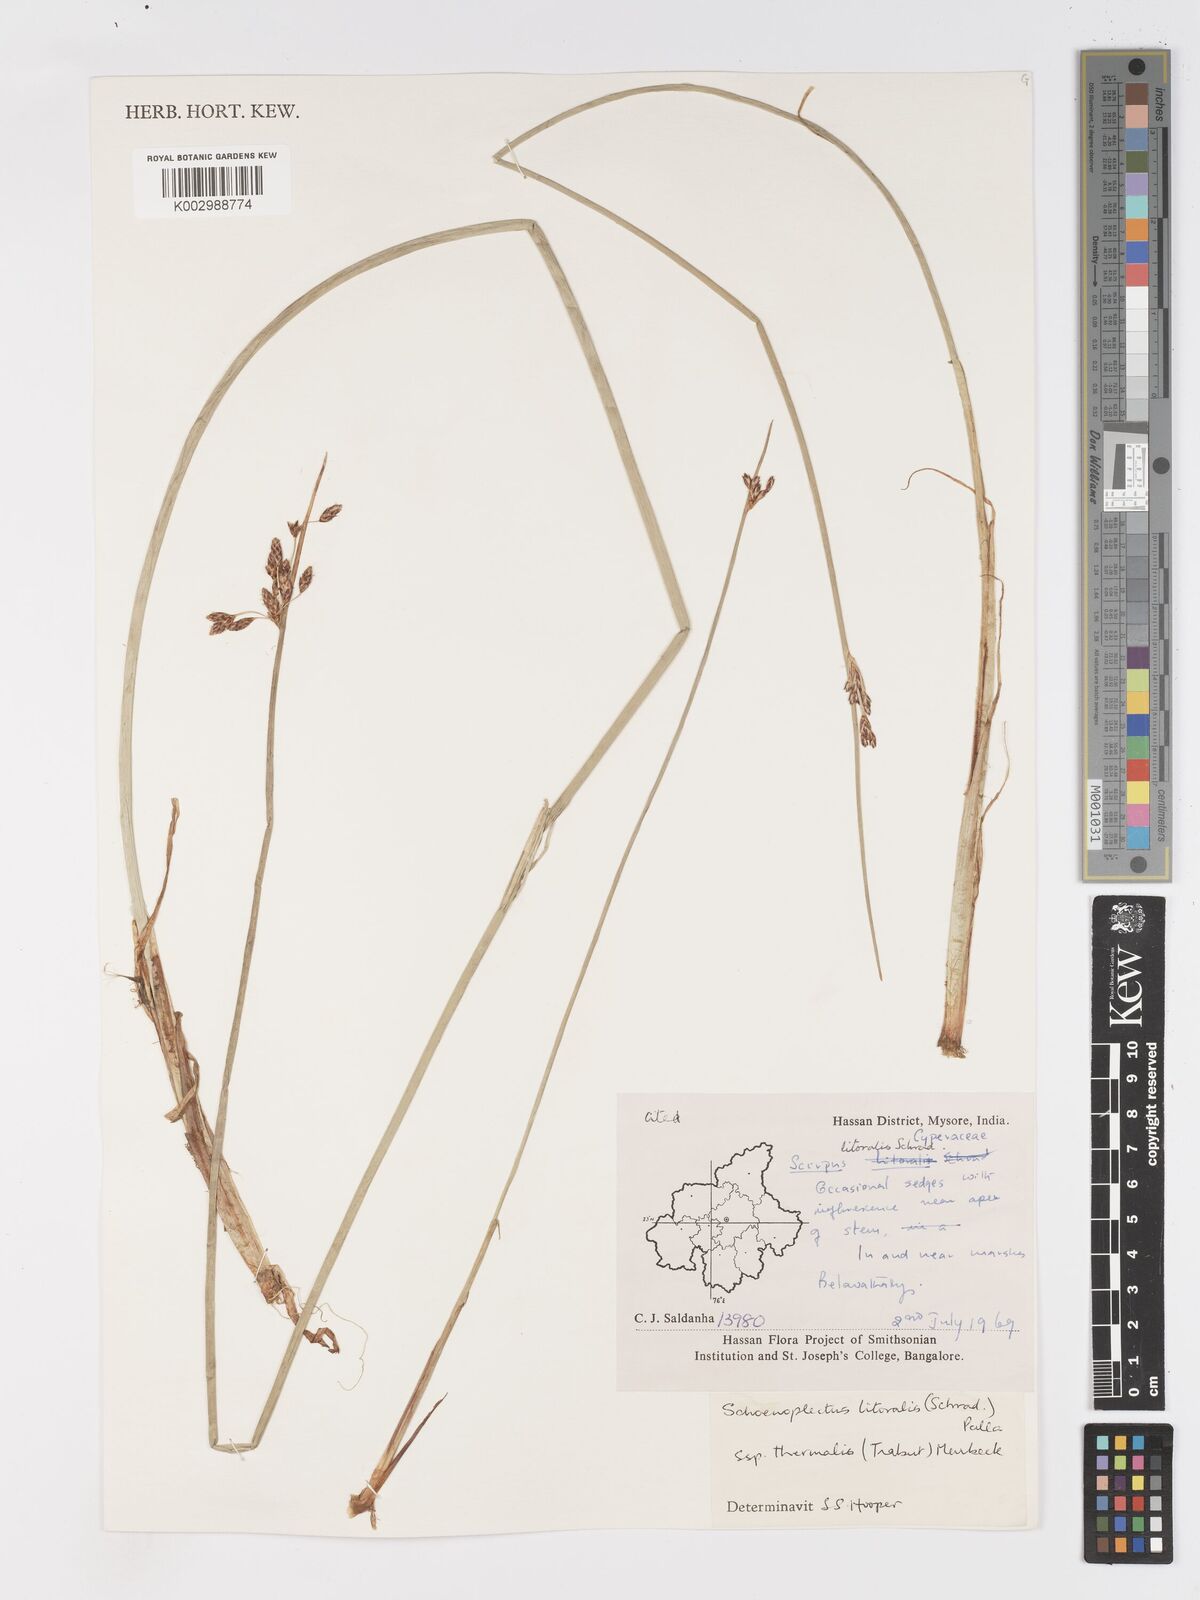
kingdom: Plantae
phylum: Tracheophyta
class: Liliopsida
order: Poales
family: Cyperaceae
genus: Schoenoplectus
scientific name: Schoenoplectus litoralis
